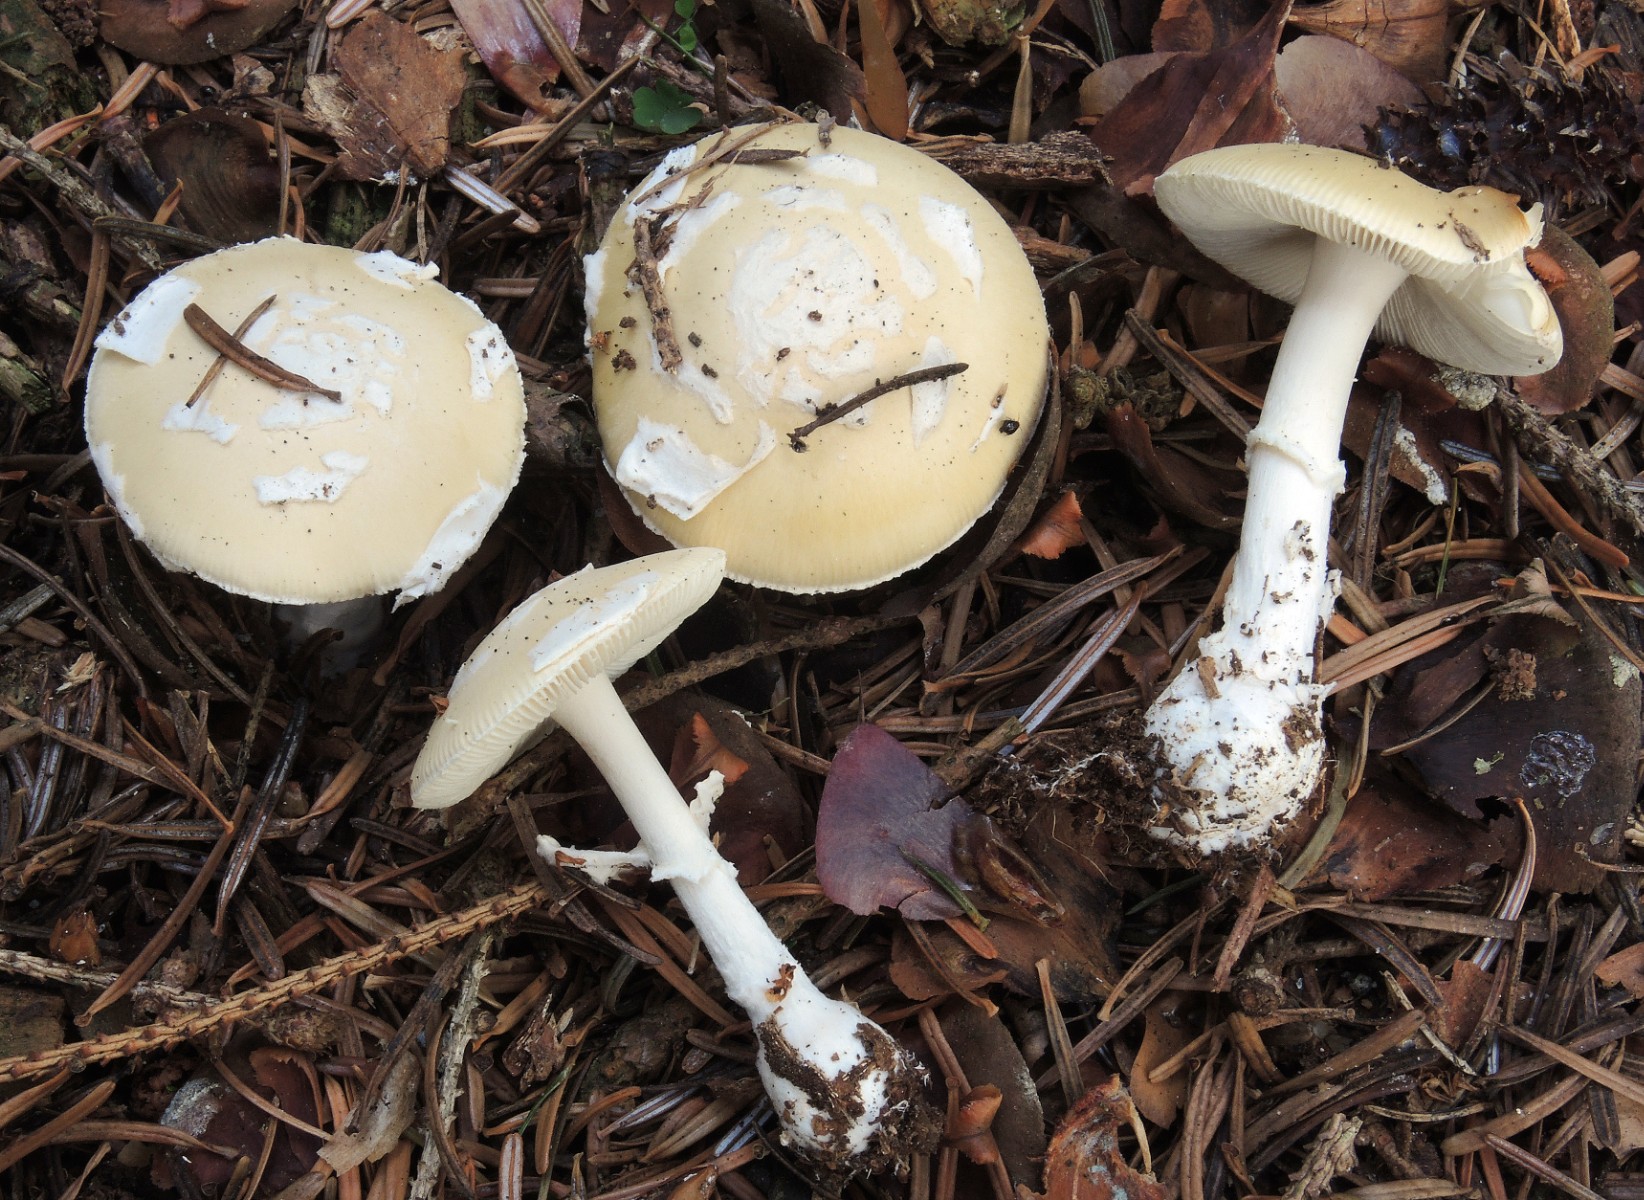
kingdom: Fungi
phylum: Basidiomycota
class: Agaricomycetes
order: Agaricales
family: Amanitaceae
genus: Amanita
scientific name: Amanita gemmata
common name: okkergul fluesvamp
